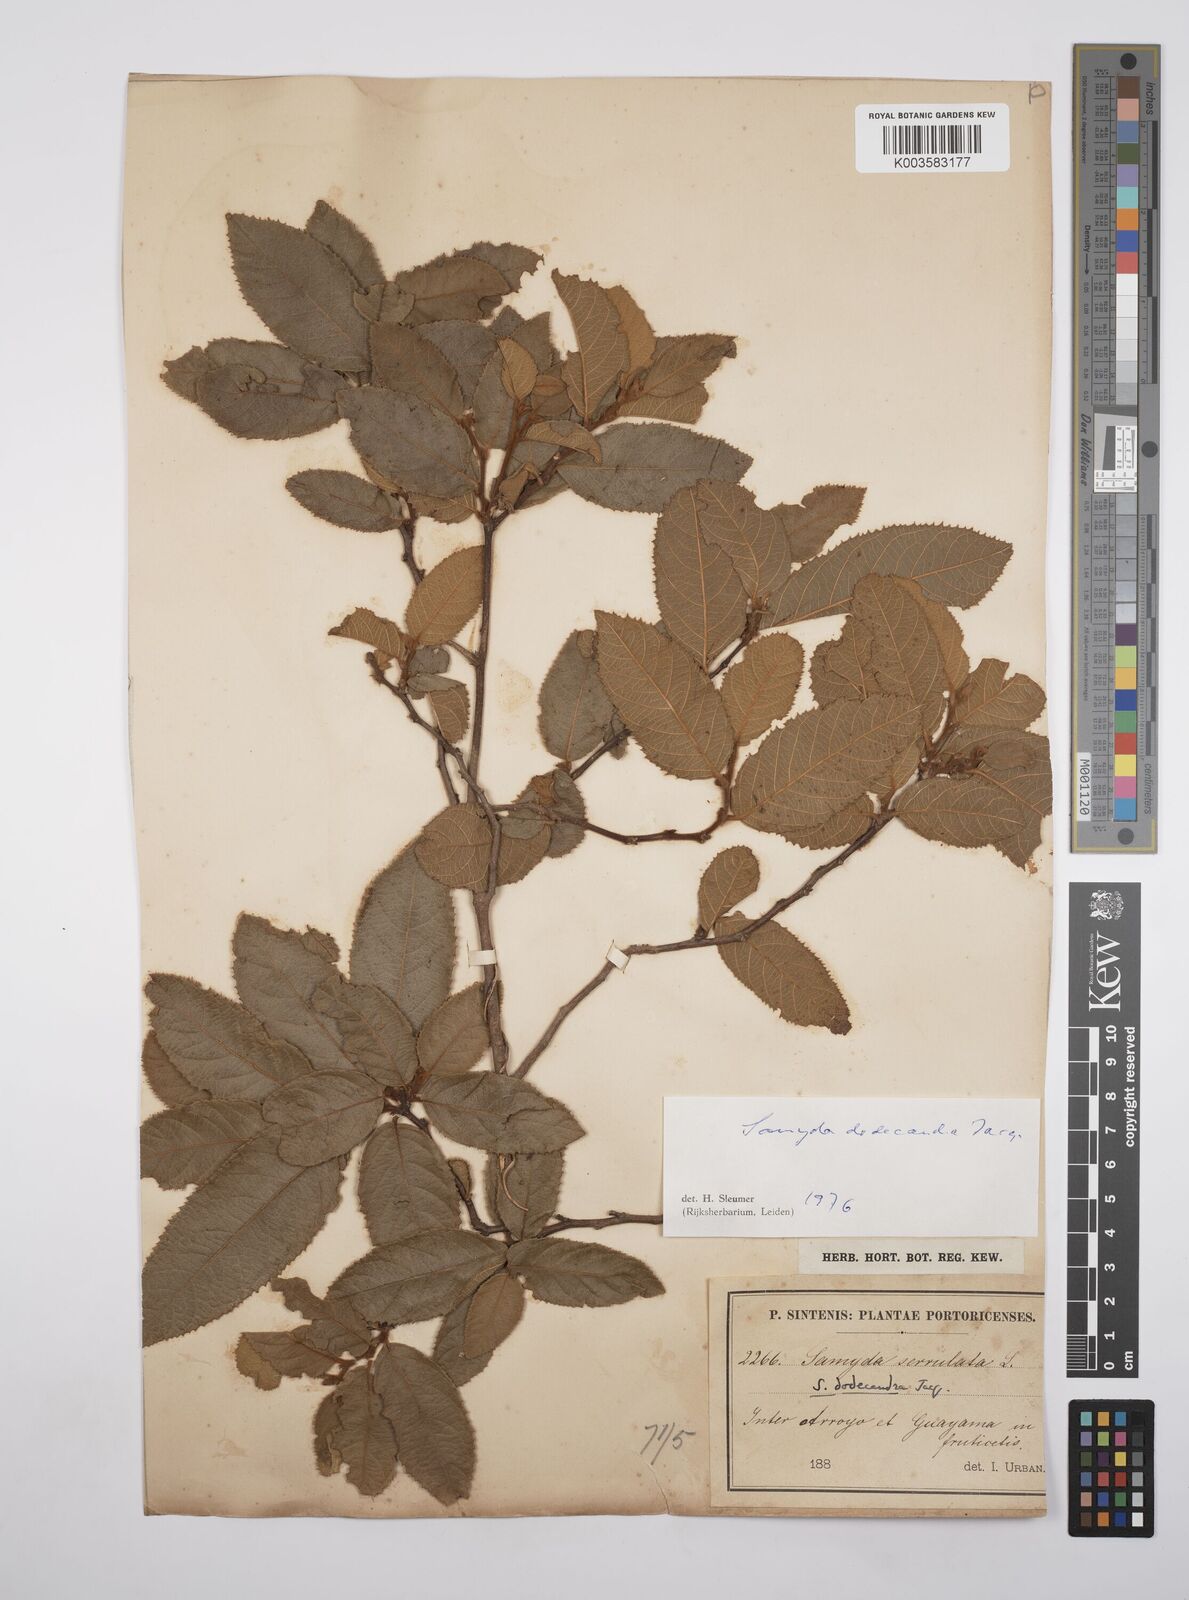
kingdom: Plantae
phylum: Tracheophyta
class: Magnoliopsida
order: Malpighiales
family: Salicaceae
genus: Casearia
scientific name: Casearia dodecandra
